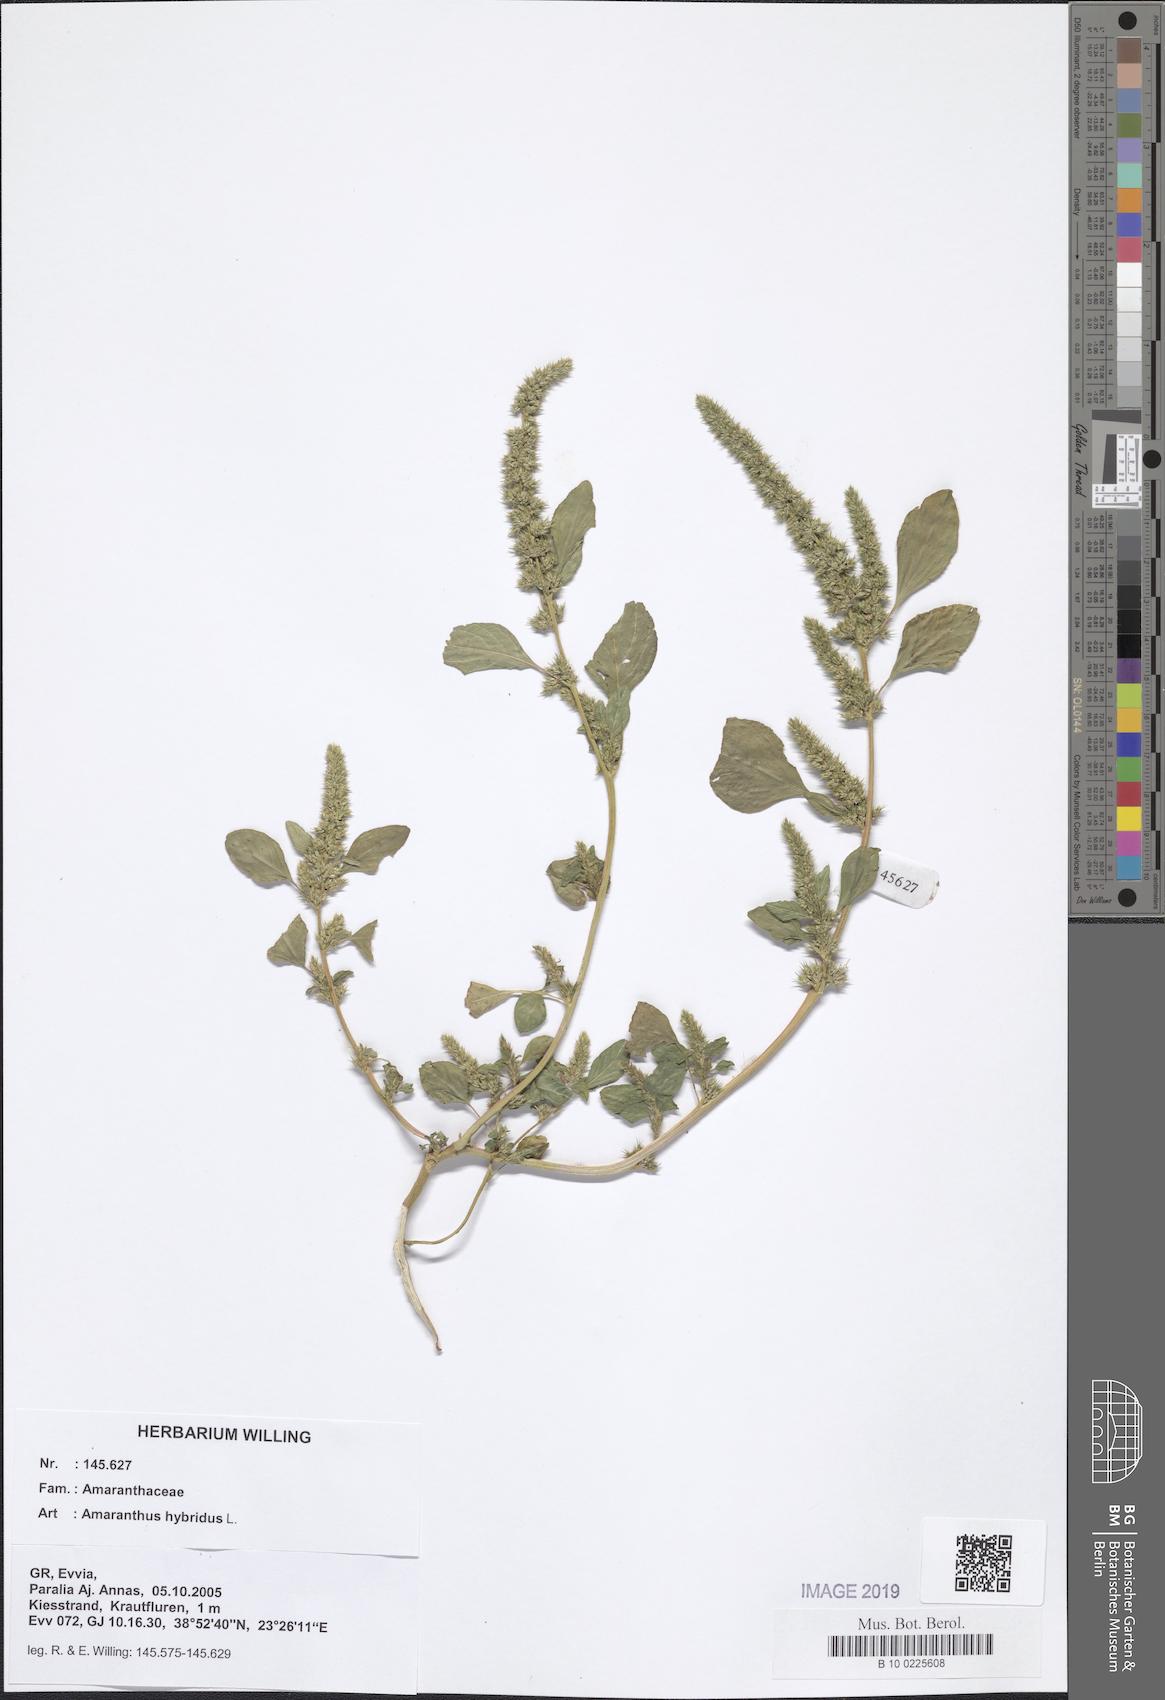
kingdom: Plantae
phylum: Tracheophyta
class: Magnoliopsida
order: Caryophyllales
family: Amaranthaceae
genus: Amaranthus
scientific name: Amaranthus hybridus
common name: Green amaranth
